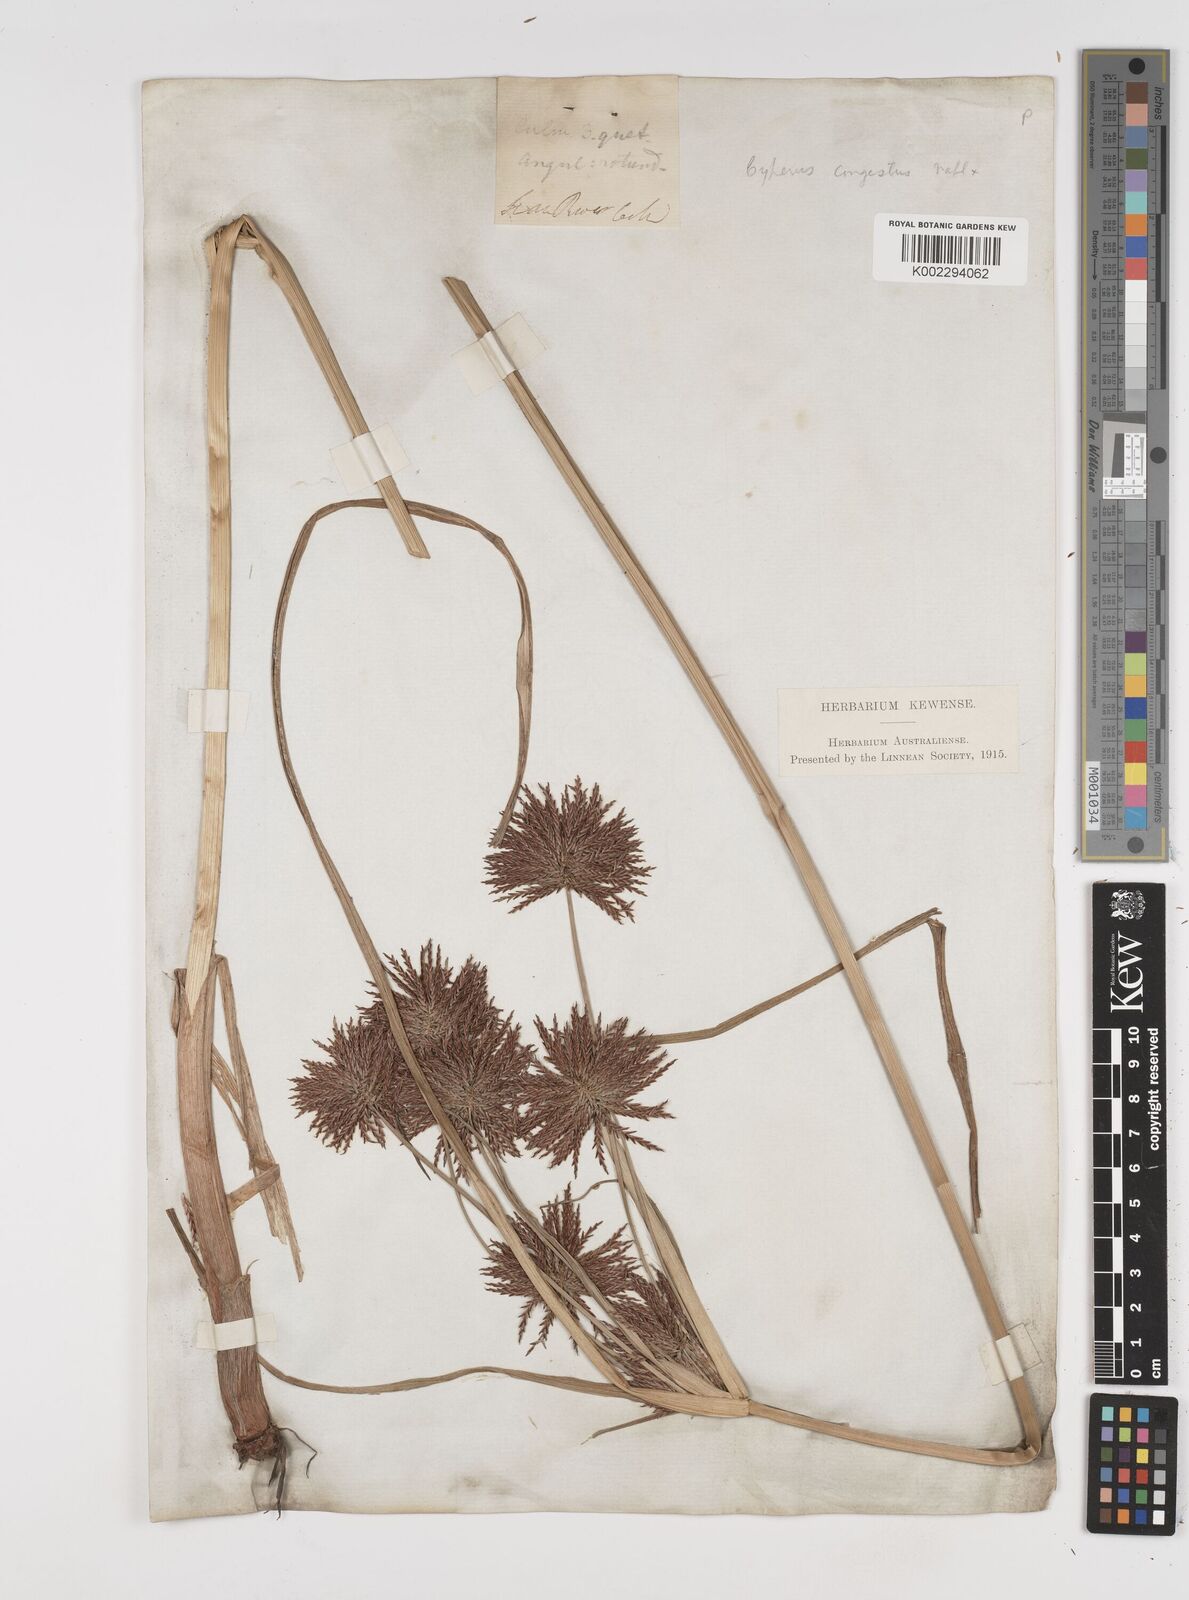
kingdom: Plantae
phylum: Tracheophyta
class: Liliopsida
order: Poales
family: Cyperaceae
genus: Cyperus
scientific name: Cyperus congestus
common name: Dense flat sedge
